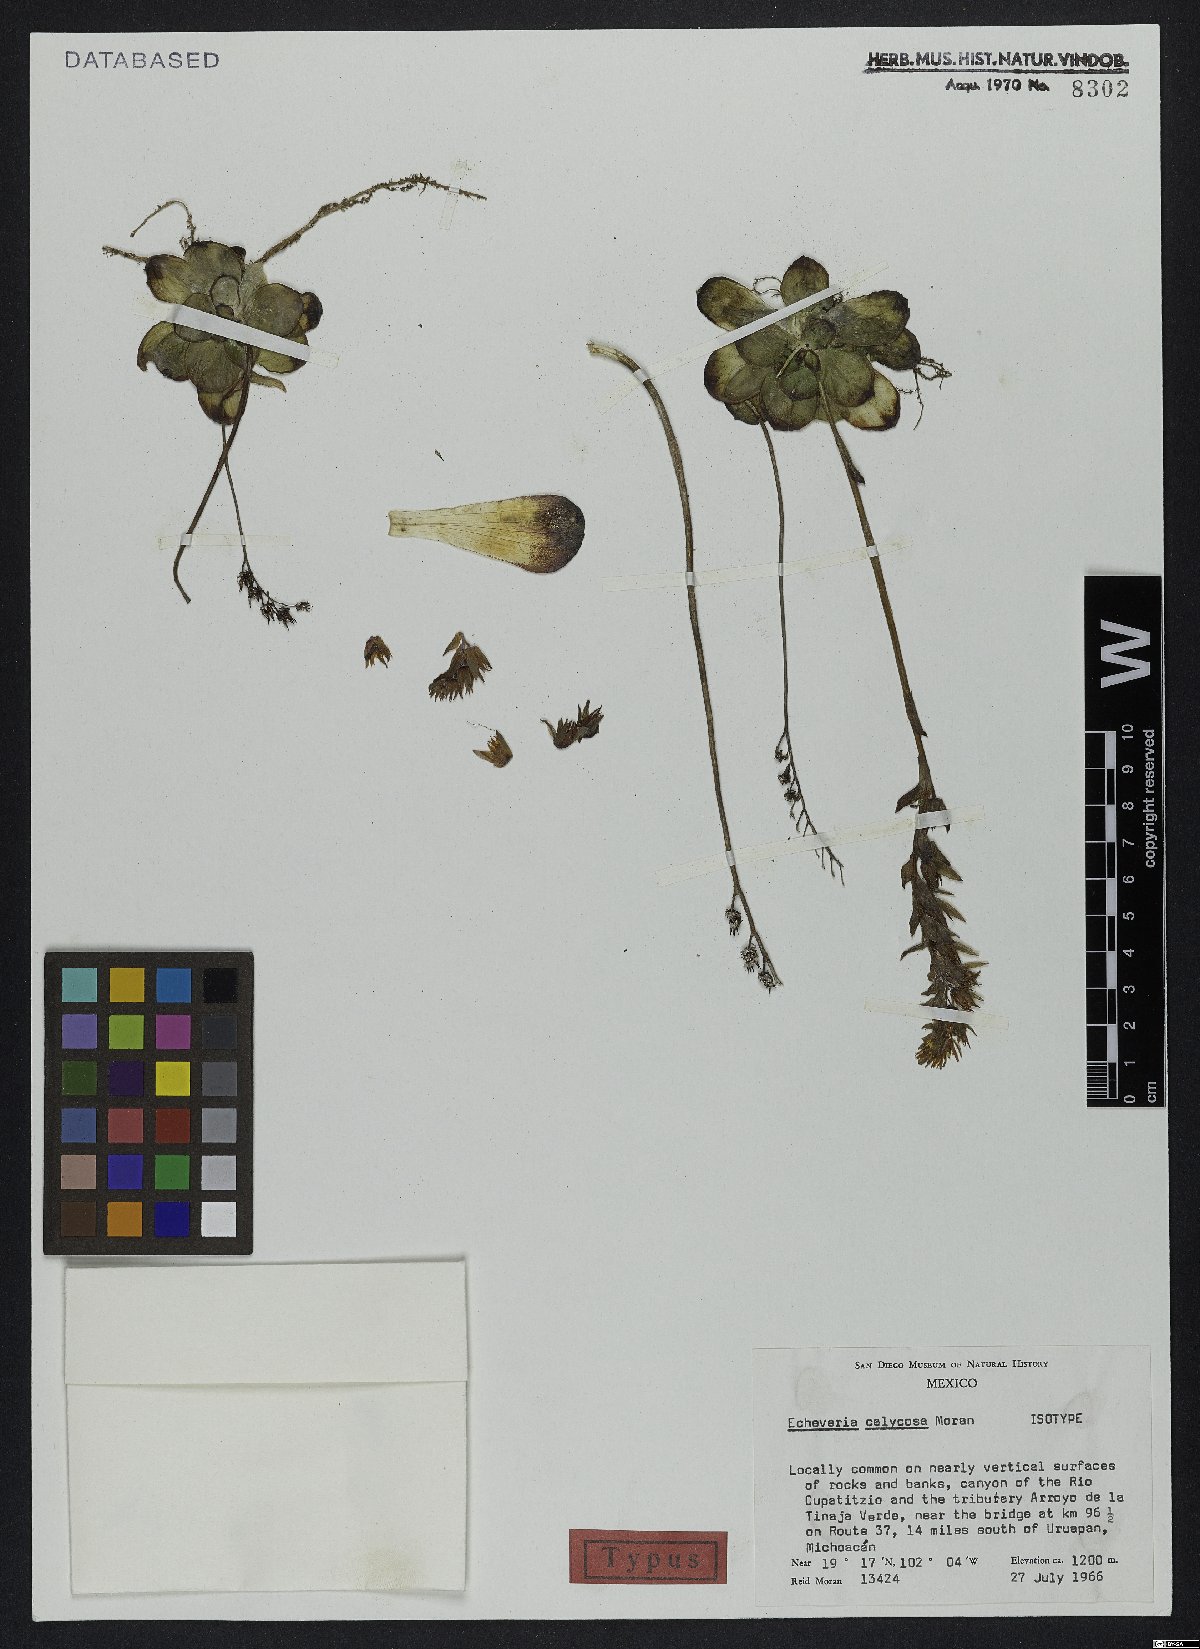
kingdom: Plantae
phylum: Tracheophyta
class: Magnoliopsida
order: Saxifragales
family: Crassulaceae
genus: Echeveria
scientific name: Echeveria calycosa
